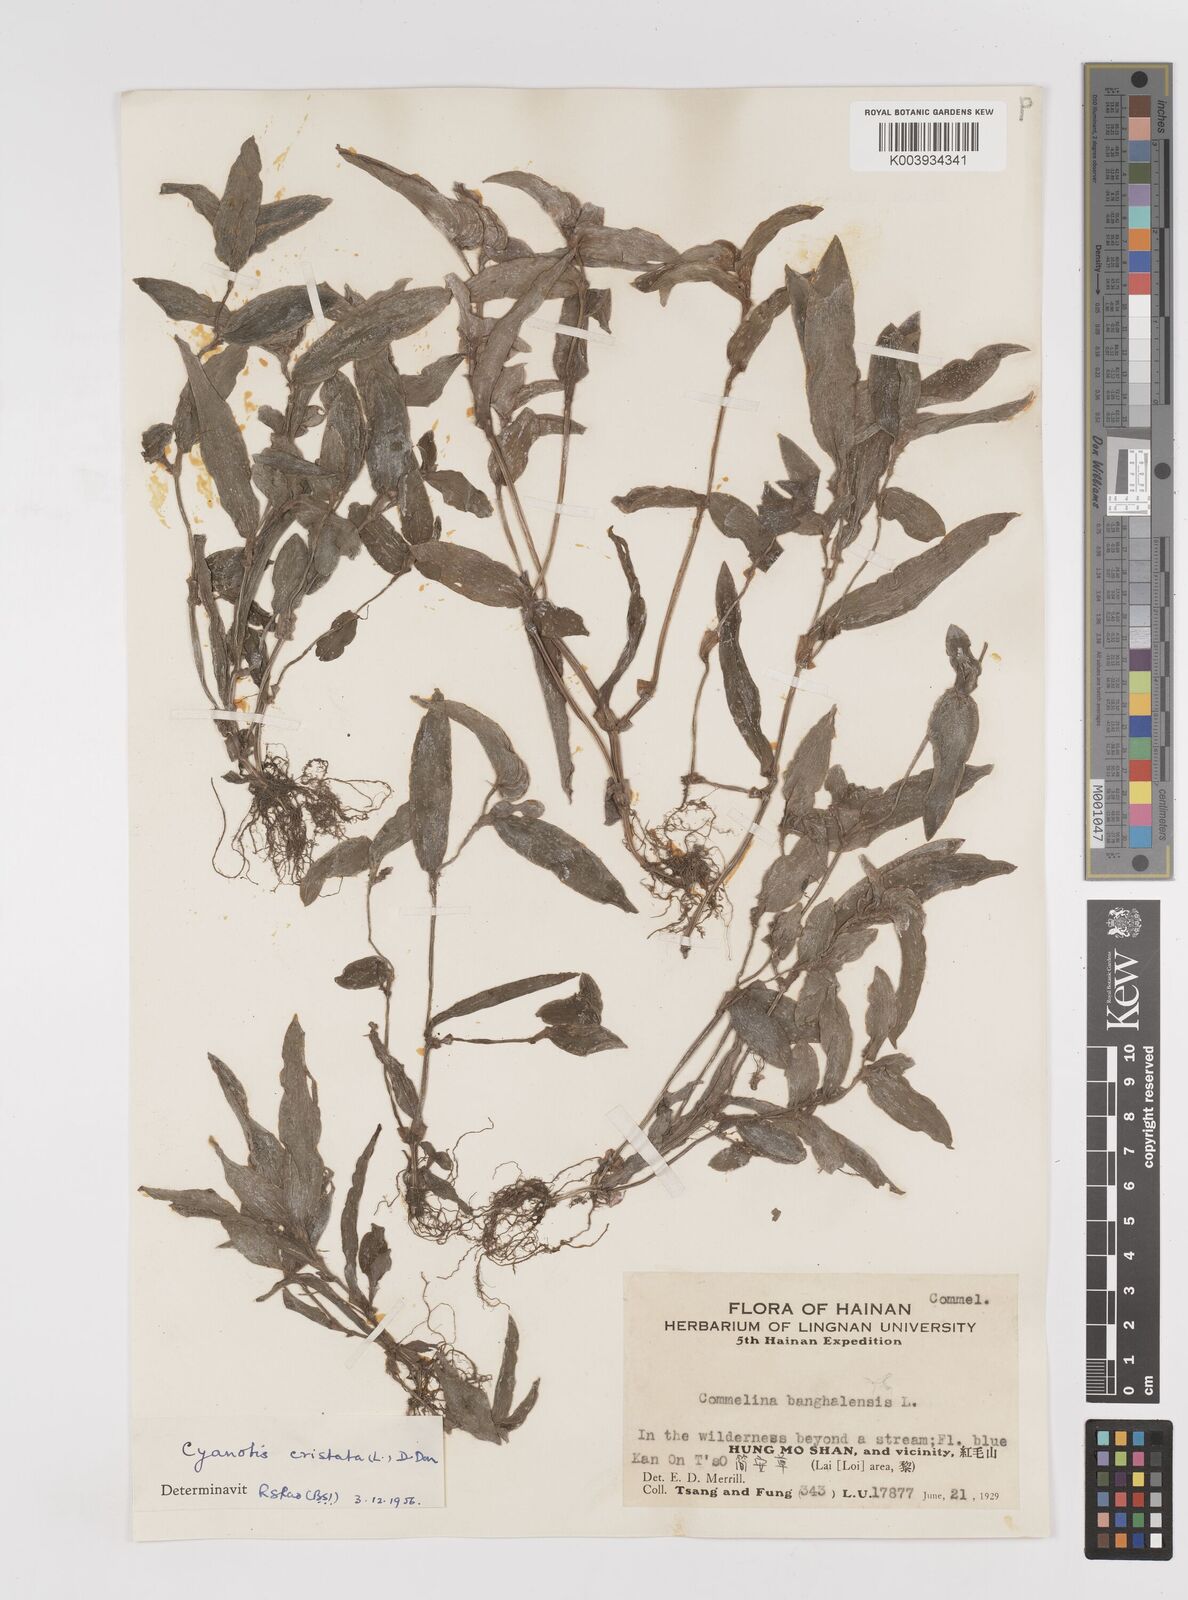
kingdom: Plantae
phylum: Tracheophyta
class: Liliopsida
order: Commelinales
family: Commelinaceae
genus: Cyanotis
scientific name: Cyanotis cristata
